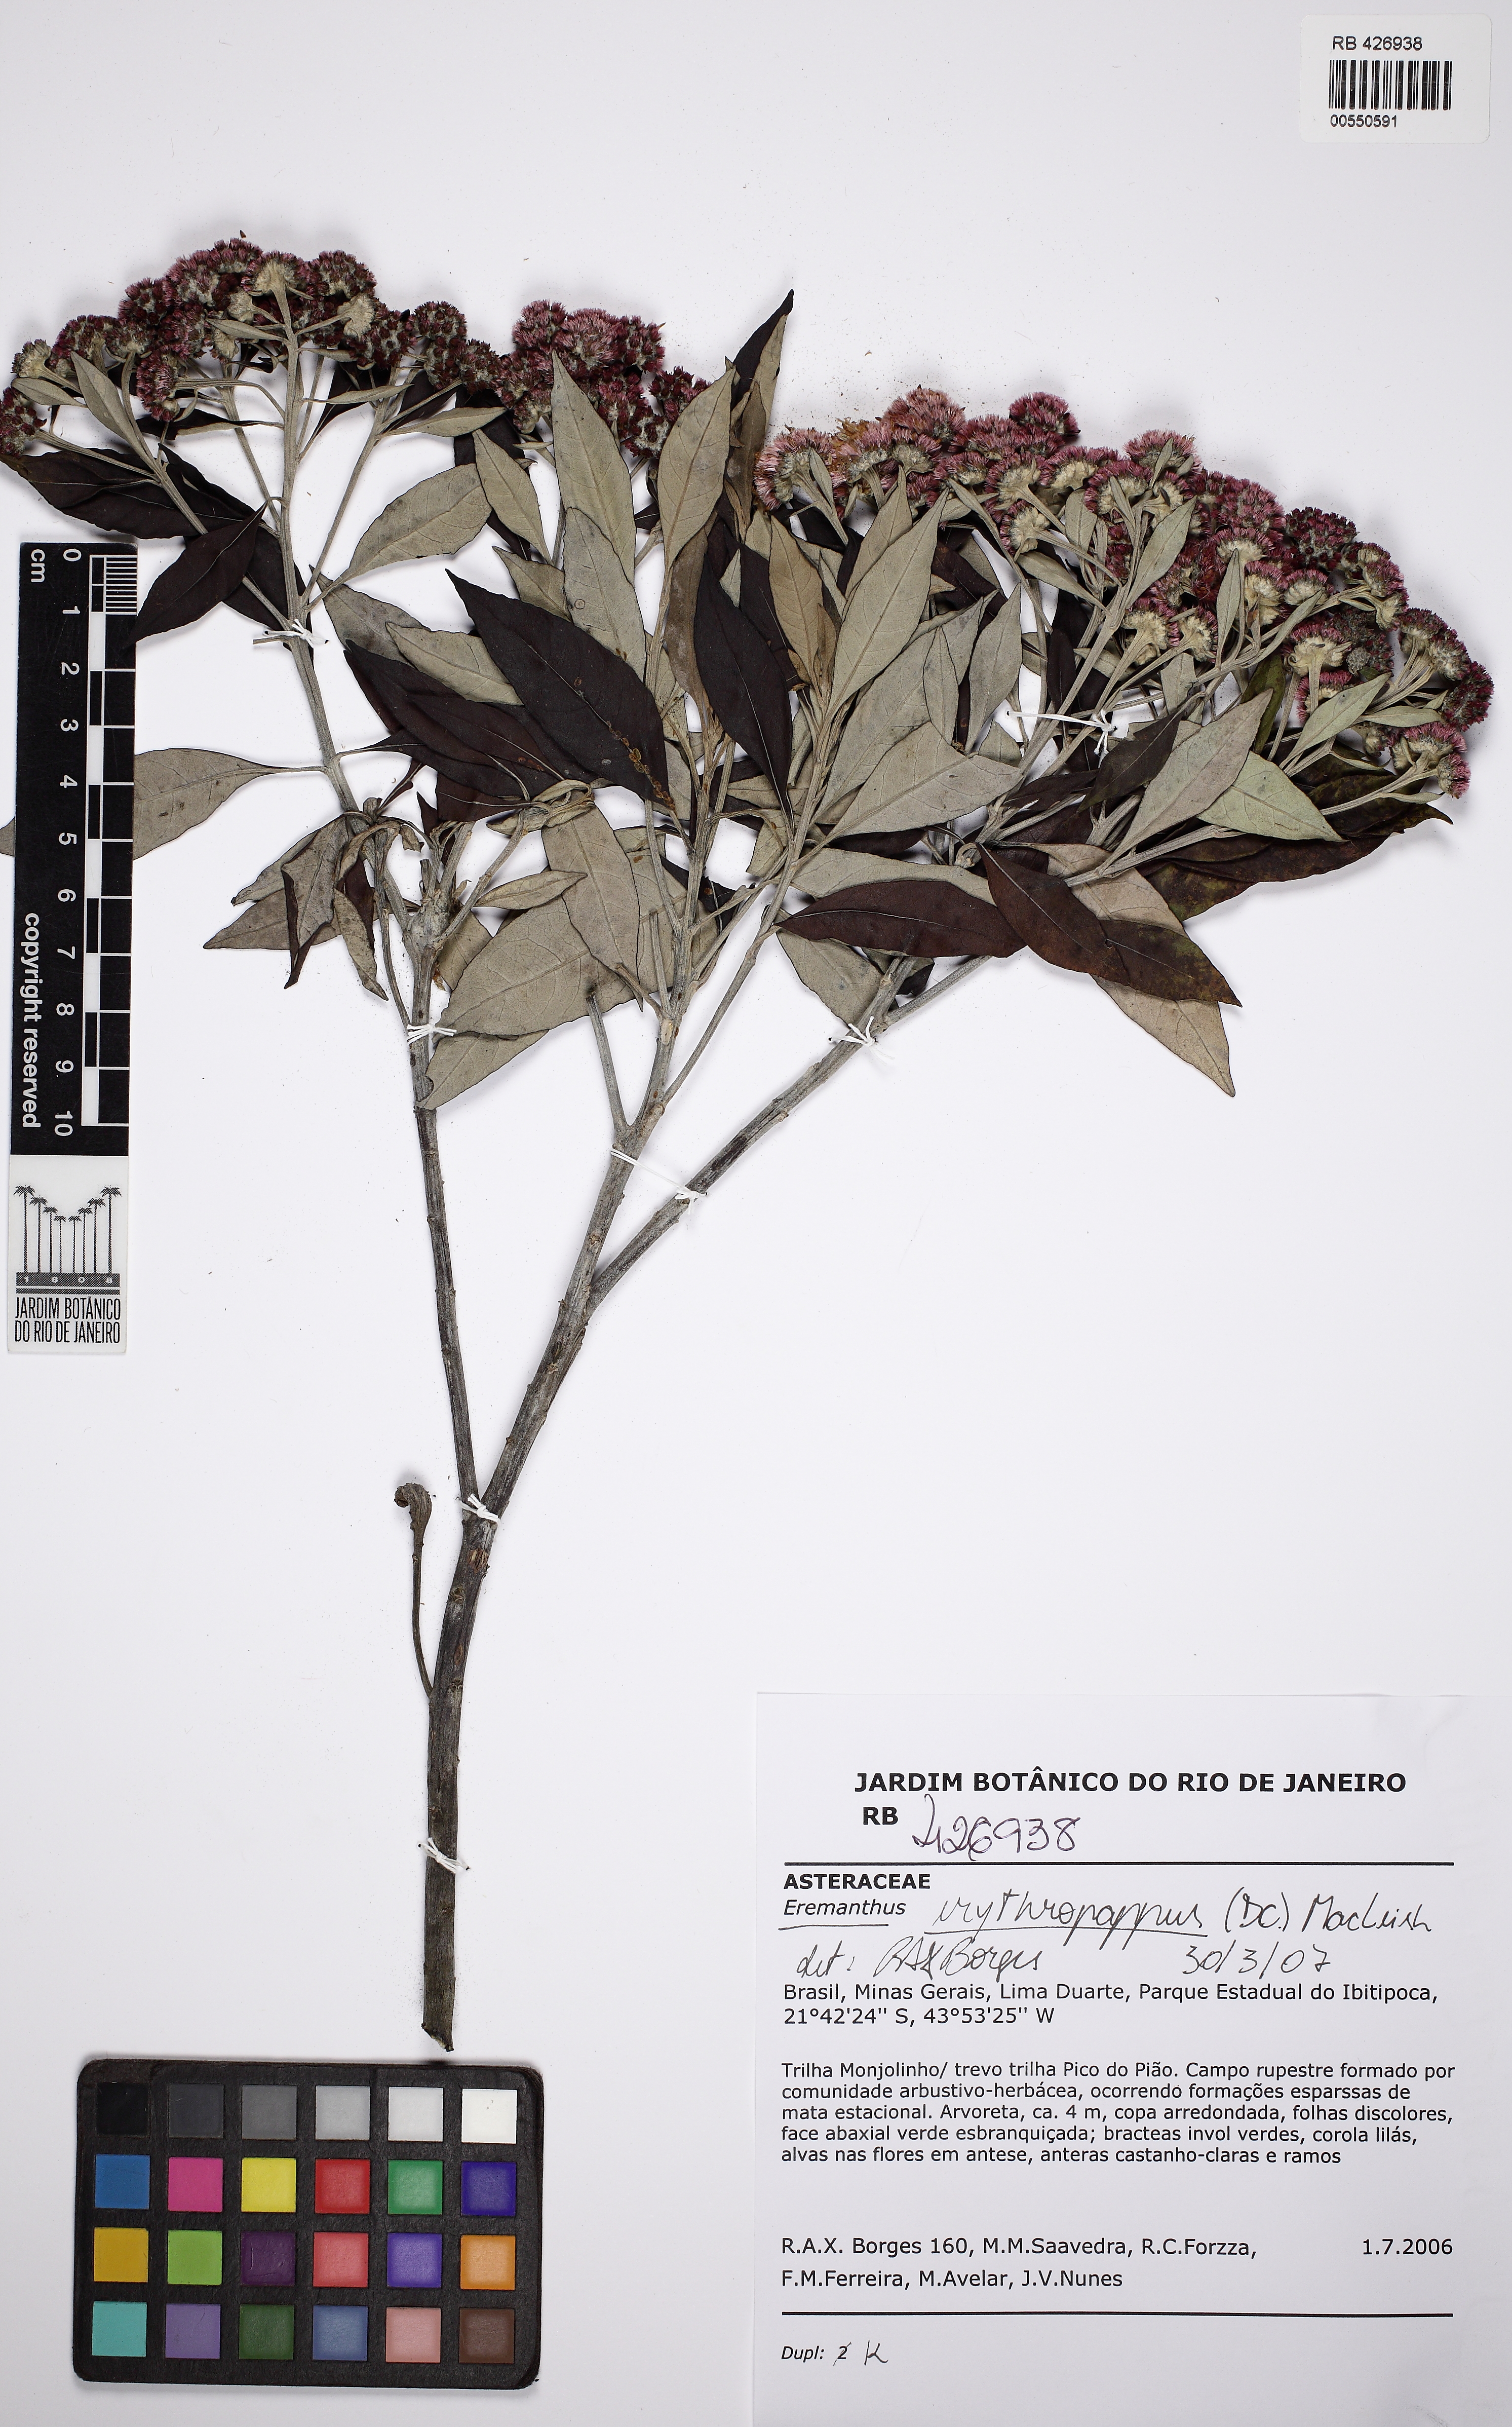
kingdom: Plantae
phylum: Tracheophyta
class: Magnoliopsida
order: Asterales
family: Asteraceae
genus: Eremanthus
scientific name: Eremanthus erythropappus
